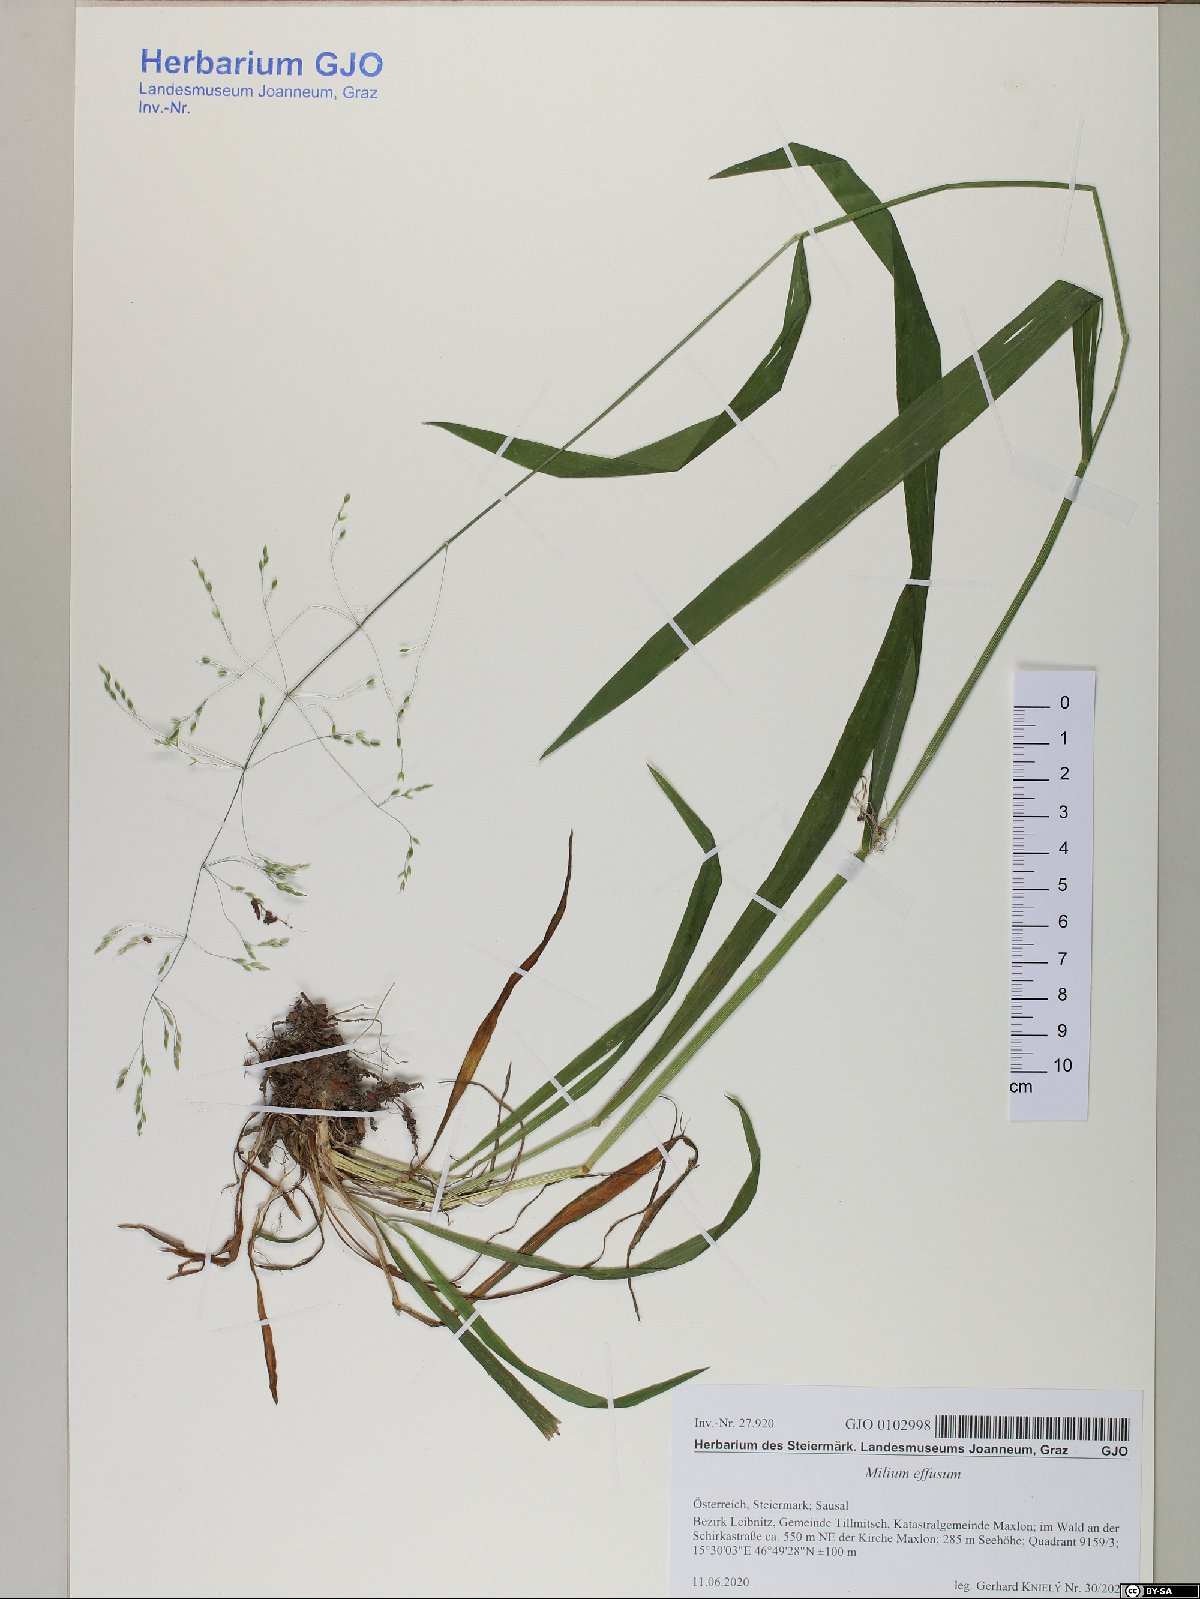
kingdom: Plantae
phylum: Tracheophyta
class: Liliopsida
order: Poales
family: Poaceae
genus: Milium
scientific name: Milium effusum
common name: Wood millet
